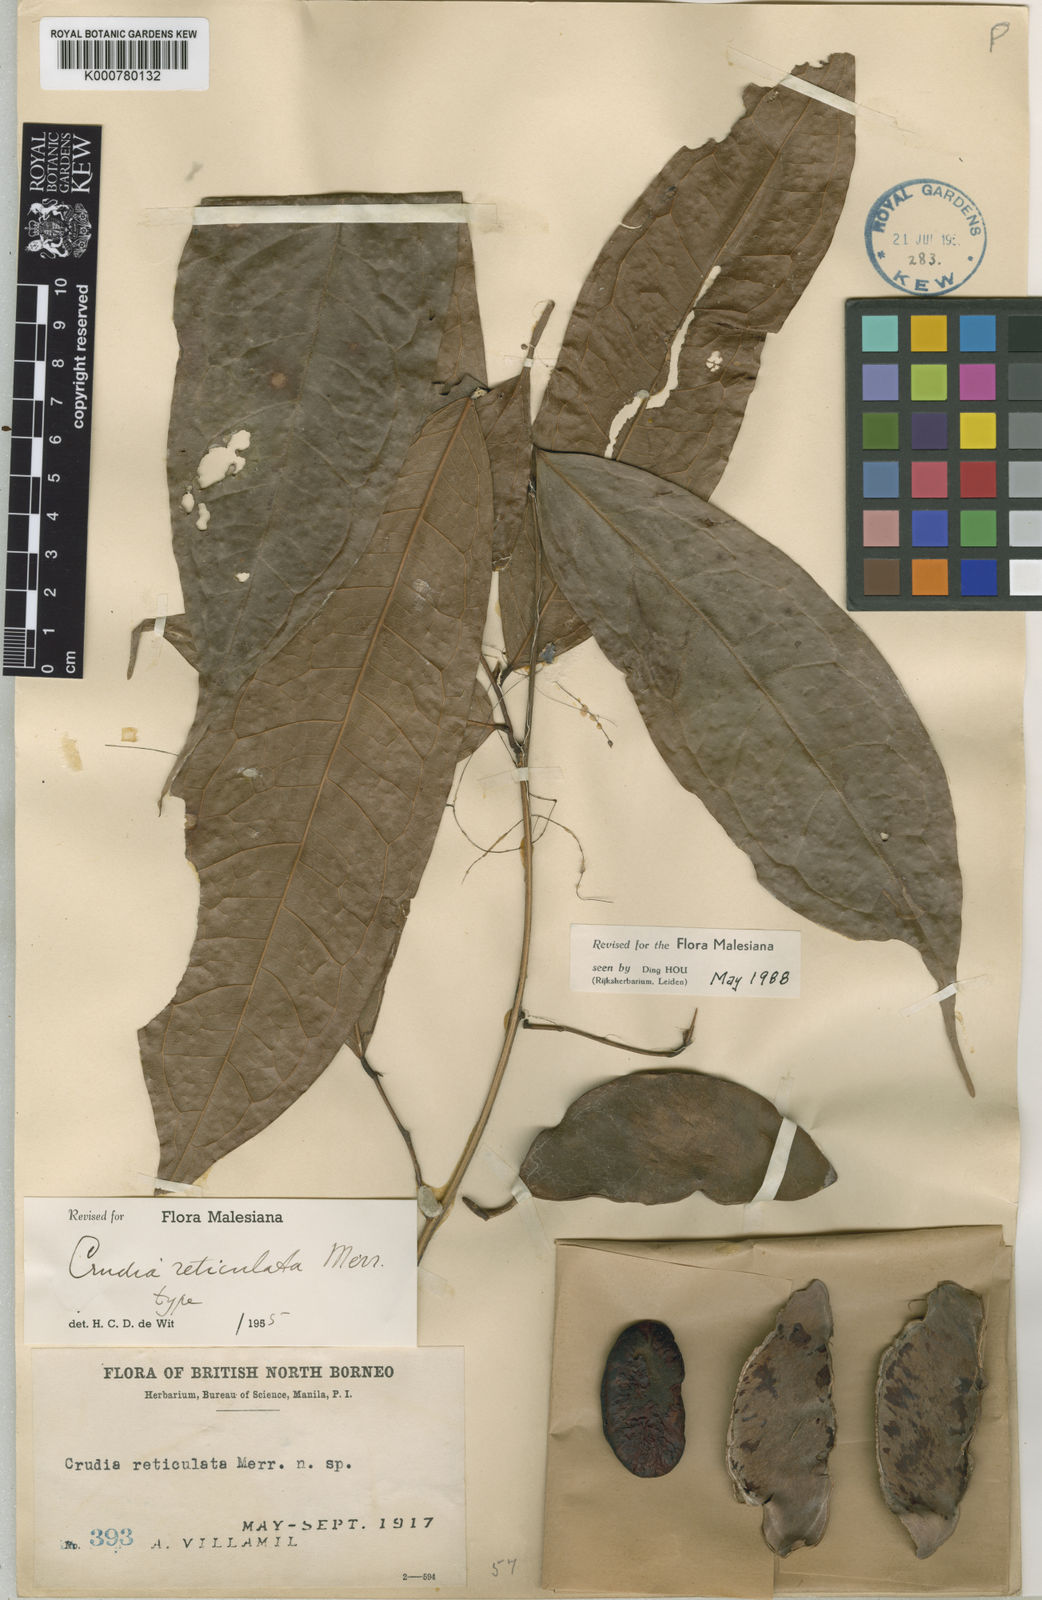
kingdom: Plantae
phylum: Tracheophyta
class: Magnoliopsida
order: Fabales
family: Fabaceae
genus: Crudia
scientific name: Crudia bantamensis
